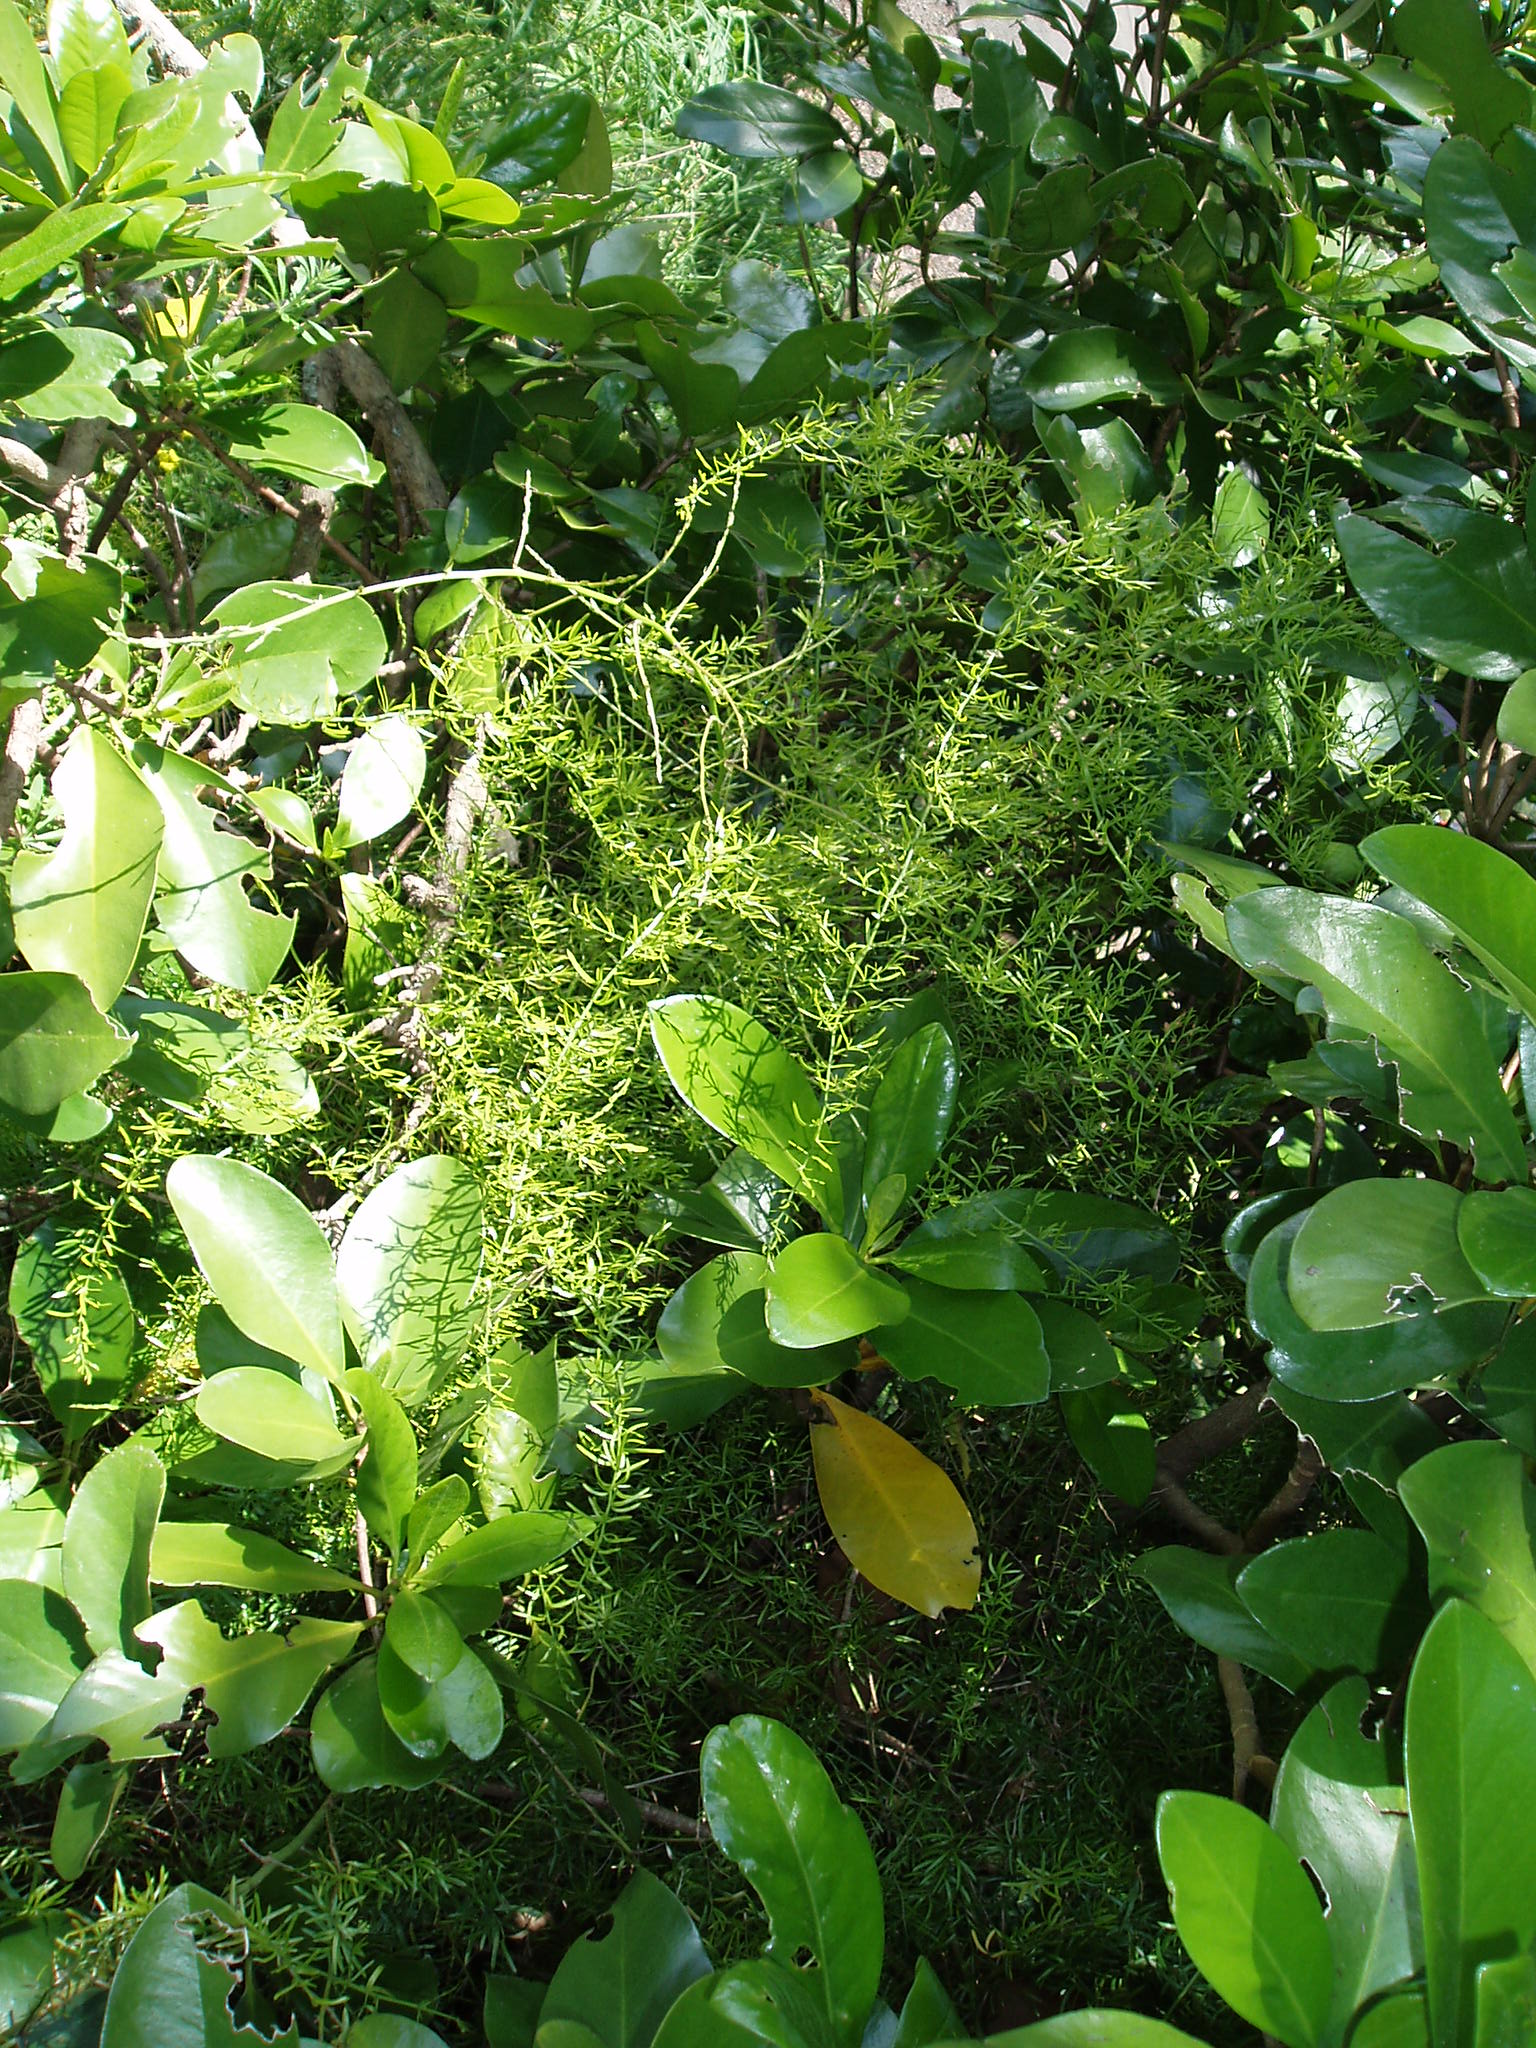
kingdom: Plantae
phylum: Tracheophyta
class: Liliopsida
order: Asparagales
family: Asparagaceae
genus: Asparagus
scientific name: Asparagus aethiopicus
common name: Sprenger's asparagus fern
